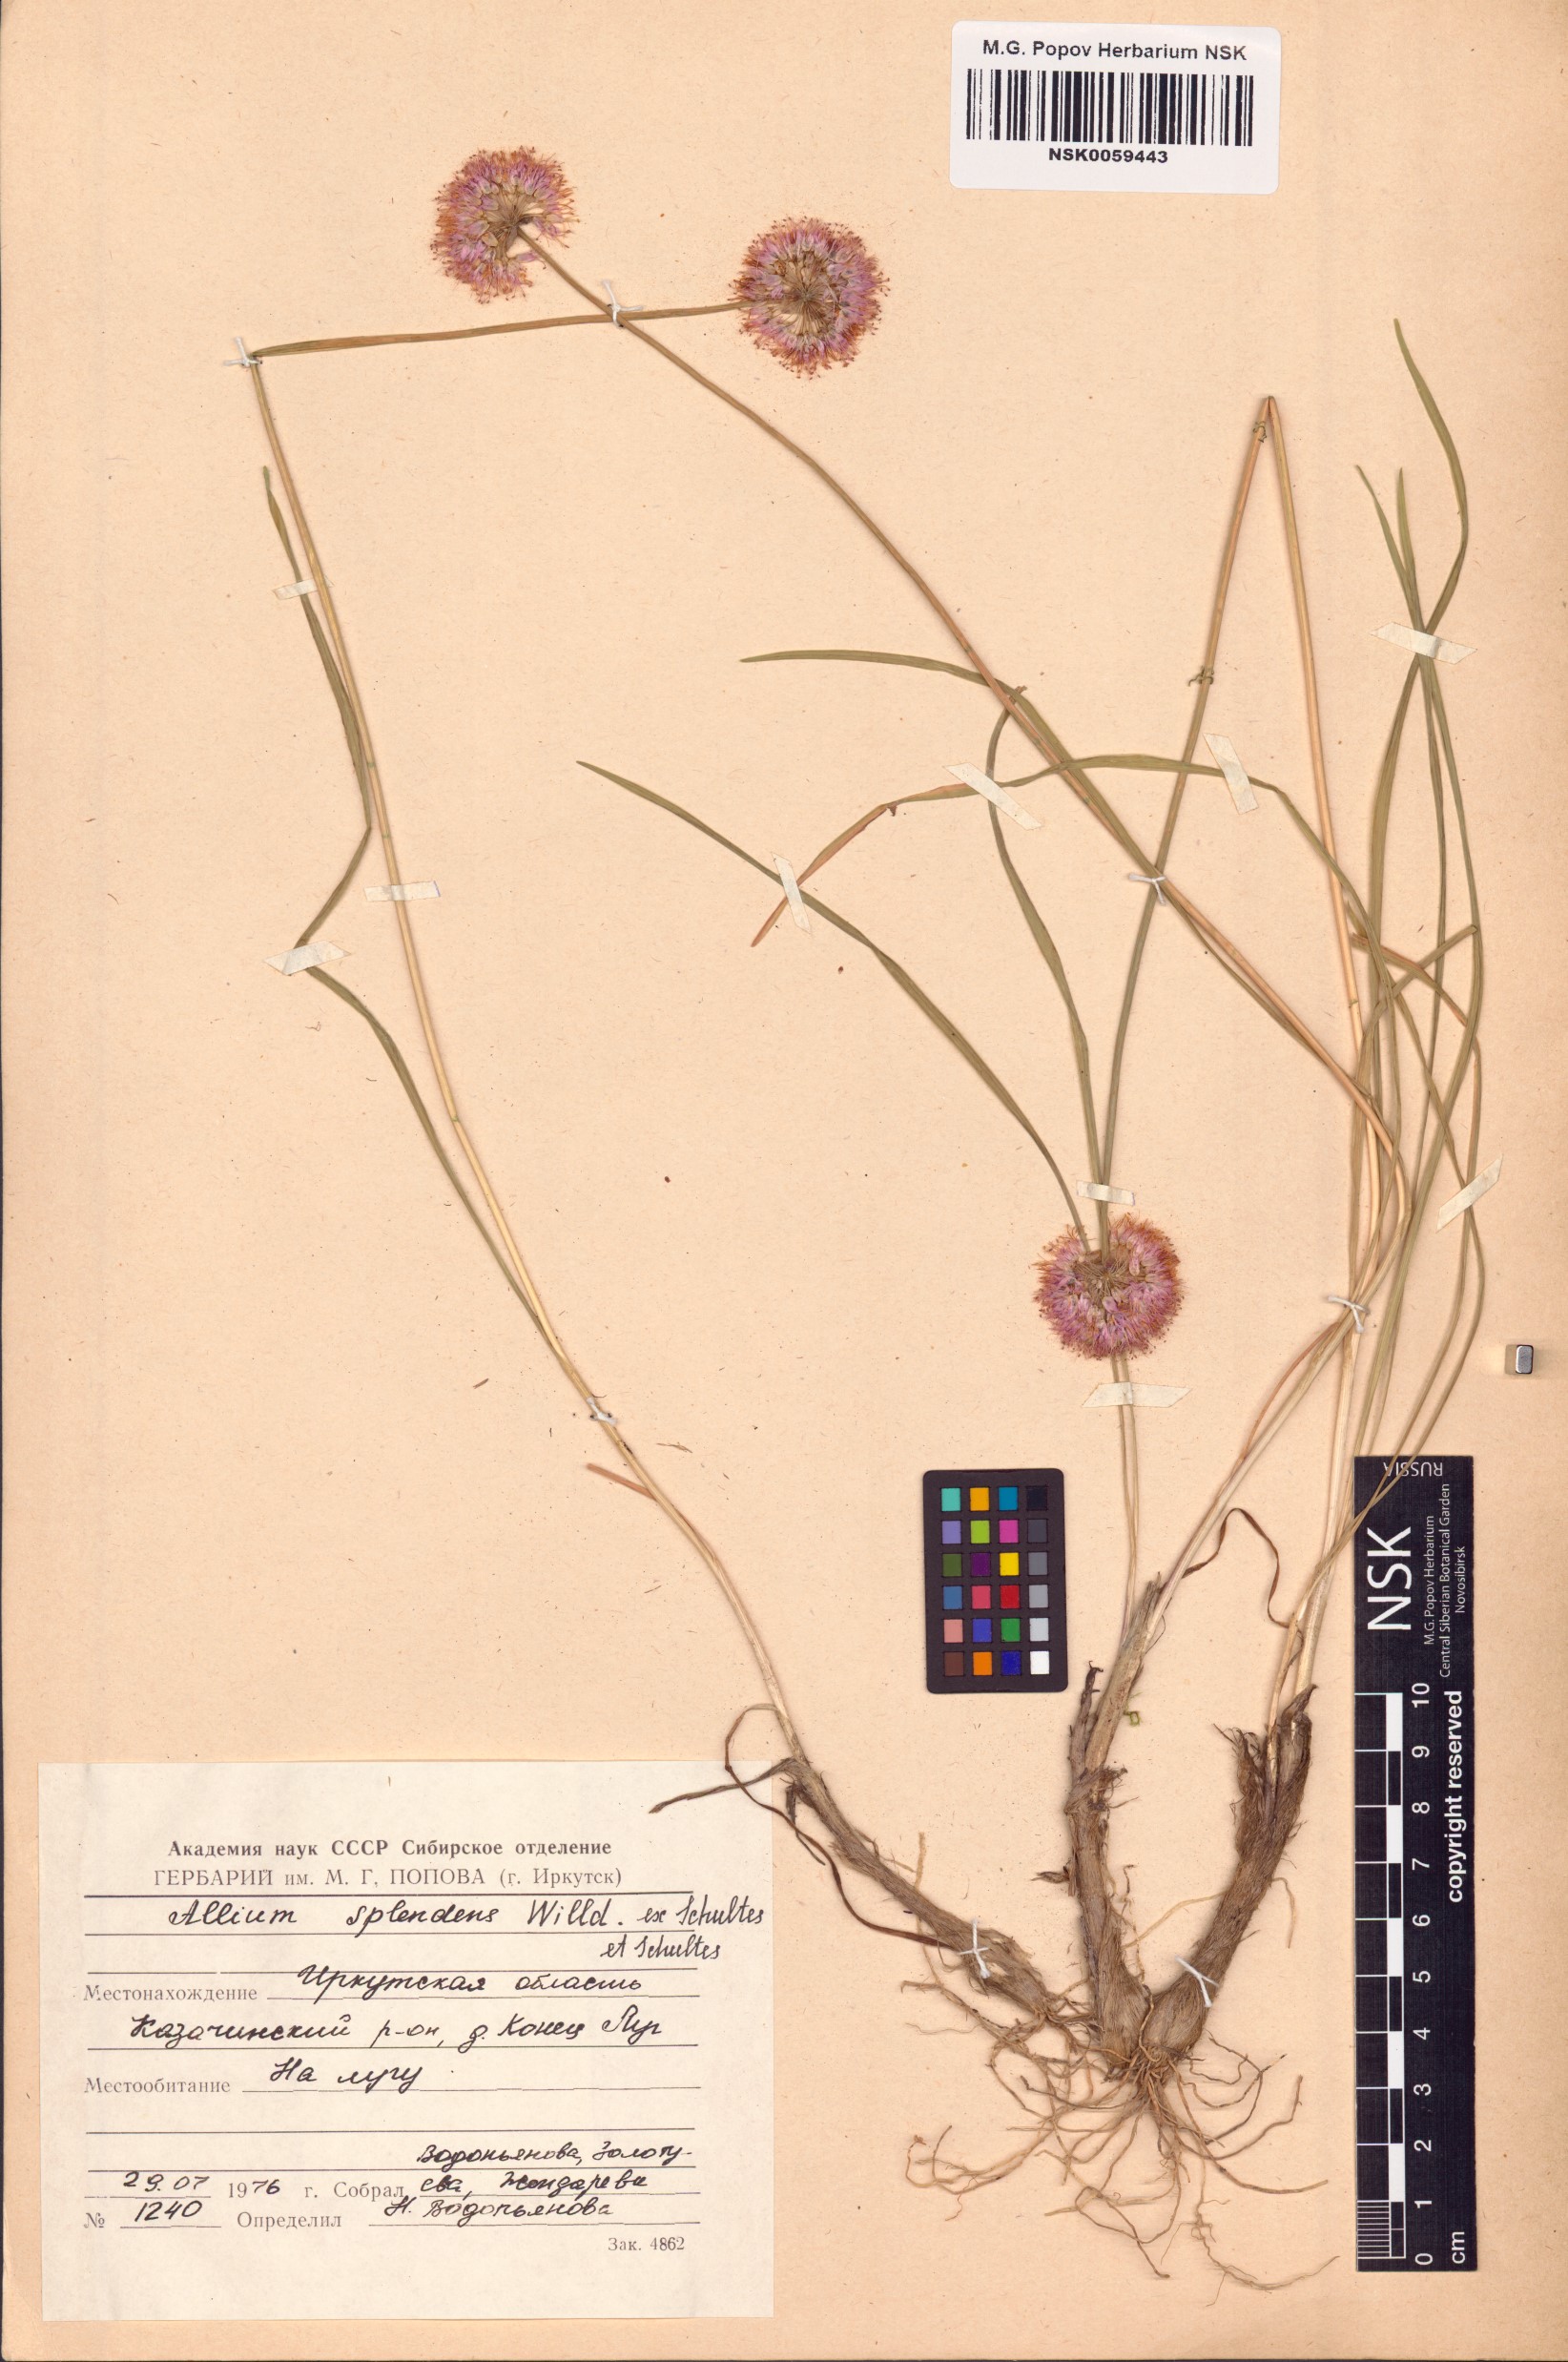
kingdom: Plantae
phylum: Tracheophyta
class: Liliopsida
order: Asparagales
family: Amaryllidaceae
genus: Allium
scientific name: Allium splendens
